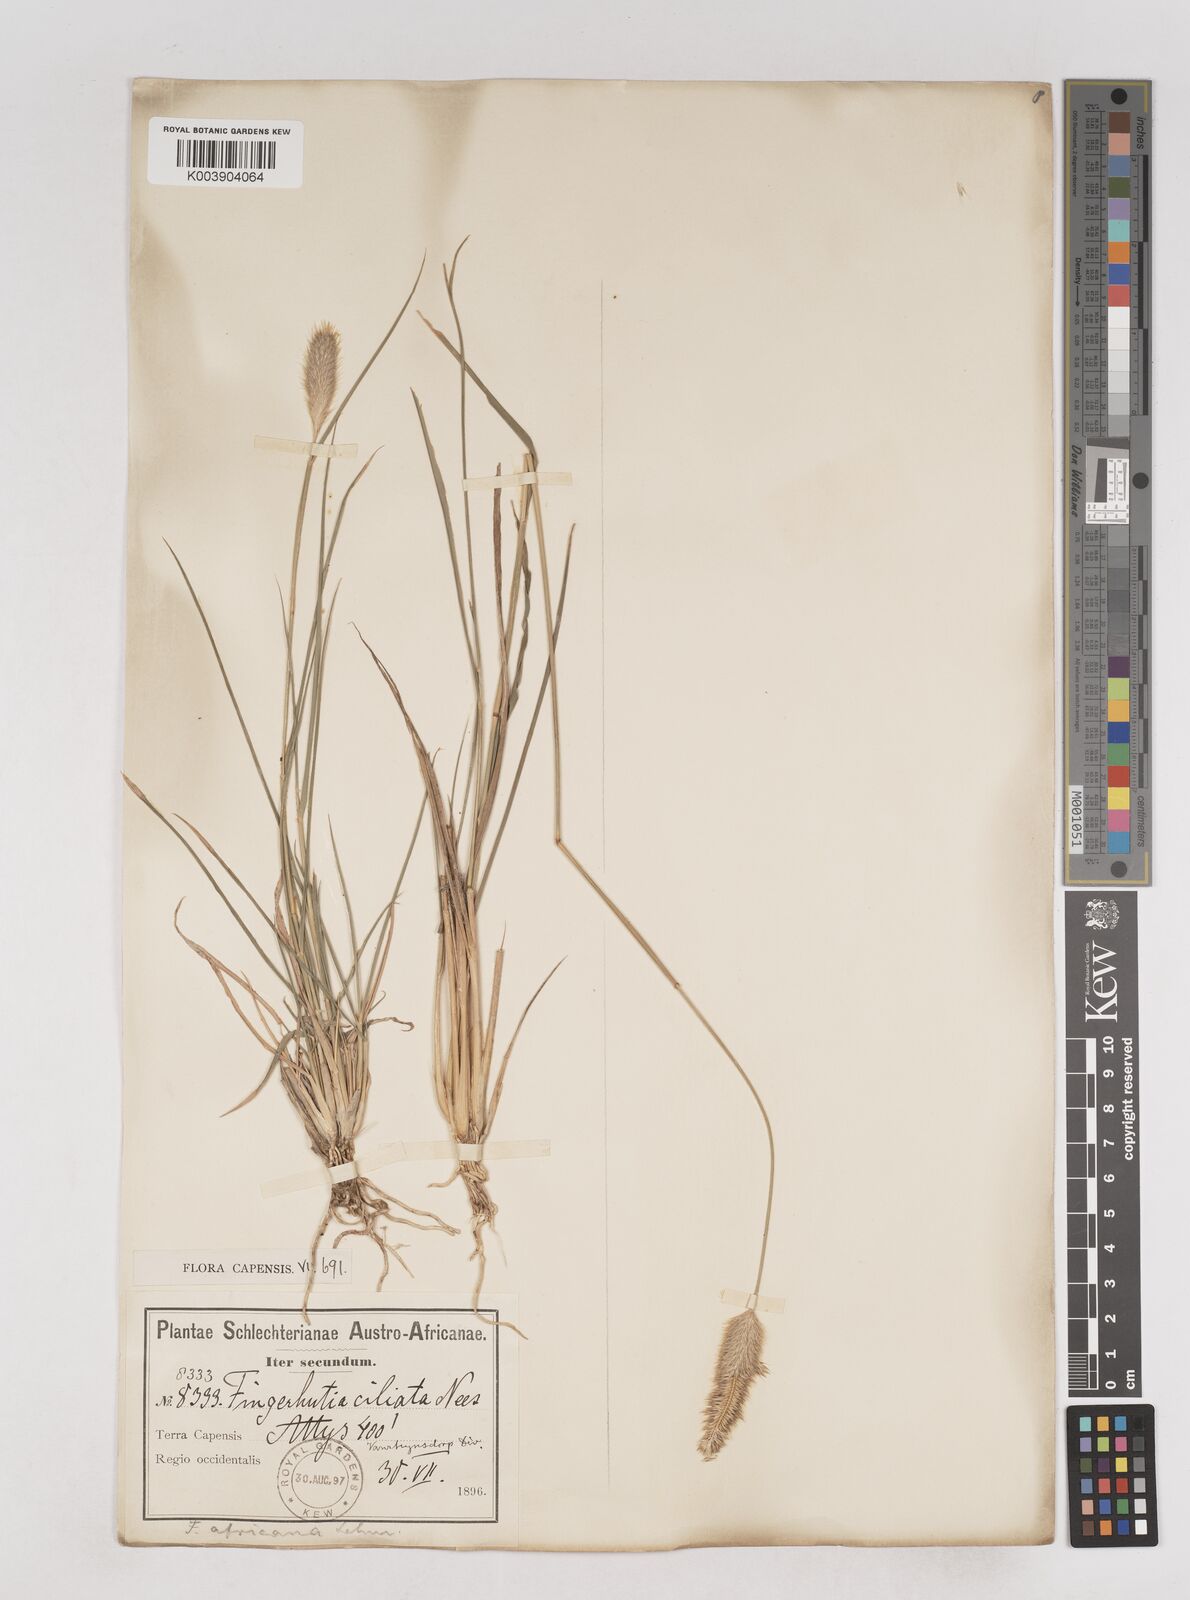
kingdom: Plantae
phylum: Tracheophyta
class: Liliopsida
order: Poales
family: Poaceae
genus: Fingerhuthia
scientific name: Fingerhuthia africana
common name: Zulu fescue
